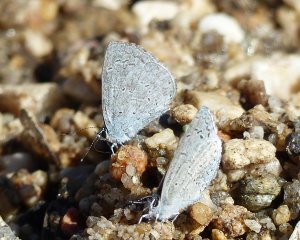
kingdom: Animalia
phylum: Arthropoda
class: Insecta
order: Lepidoptera
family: Lycaenidae
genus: Celastrina
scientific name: Celastrina ladon
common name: Echo Azure
